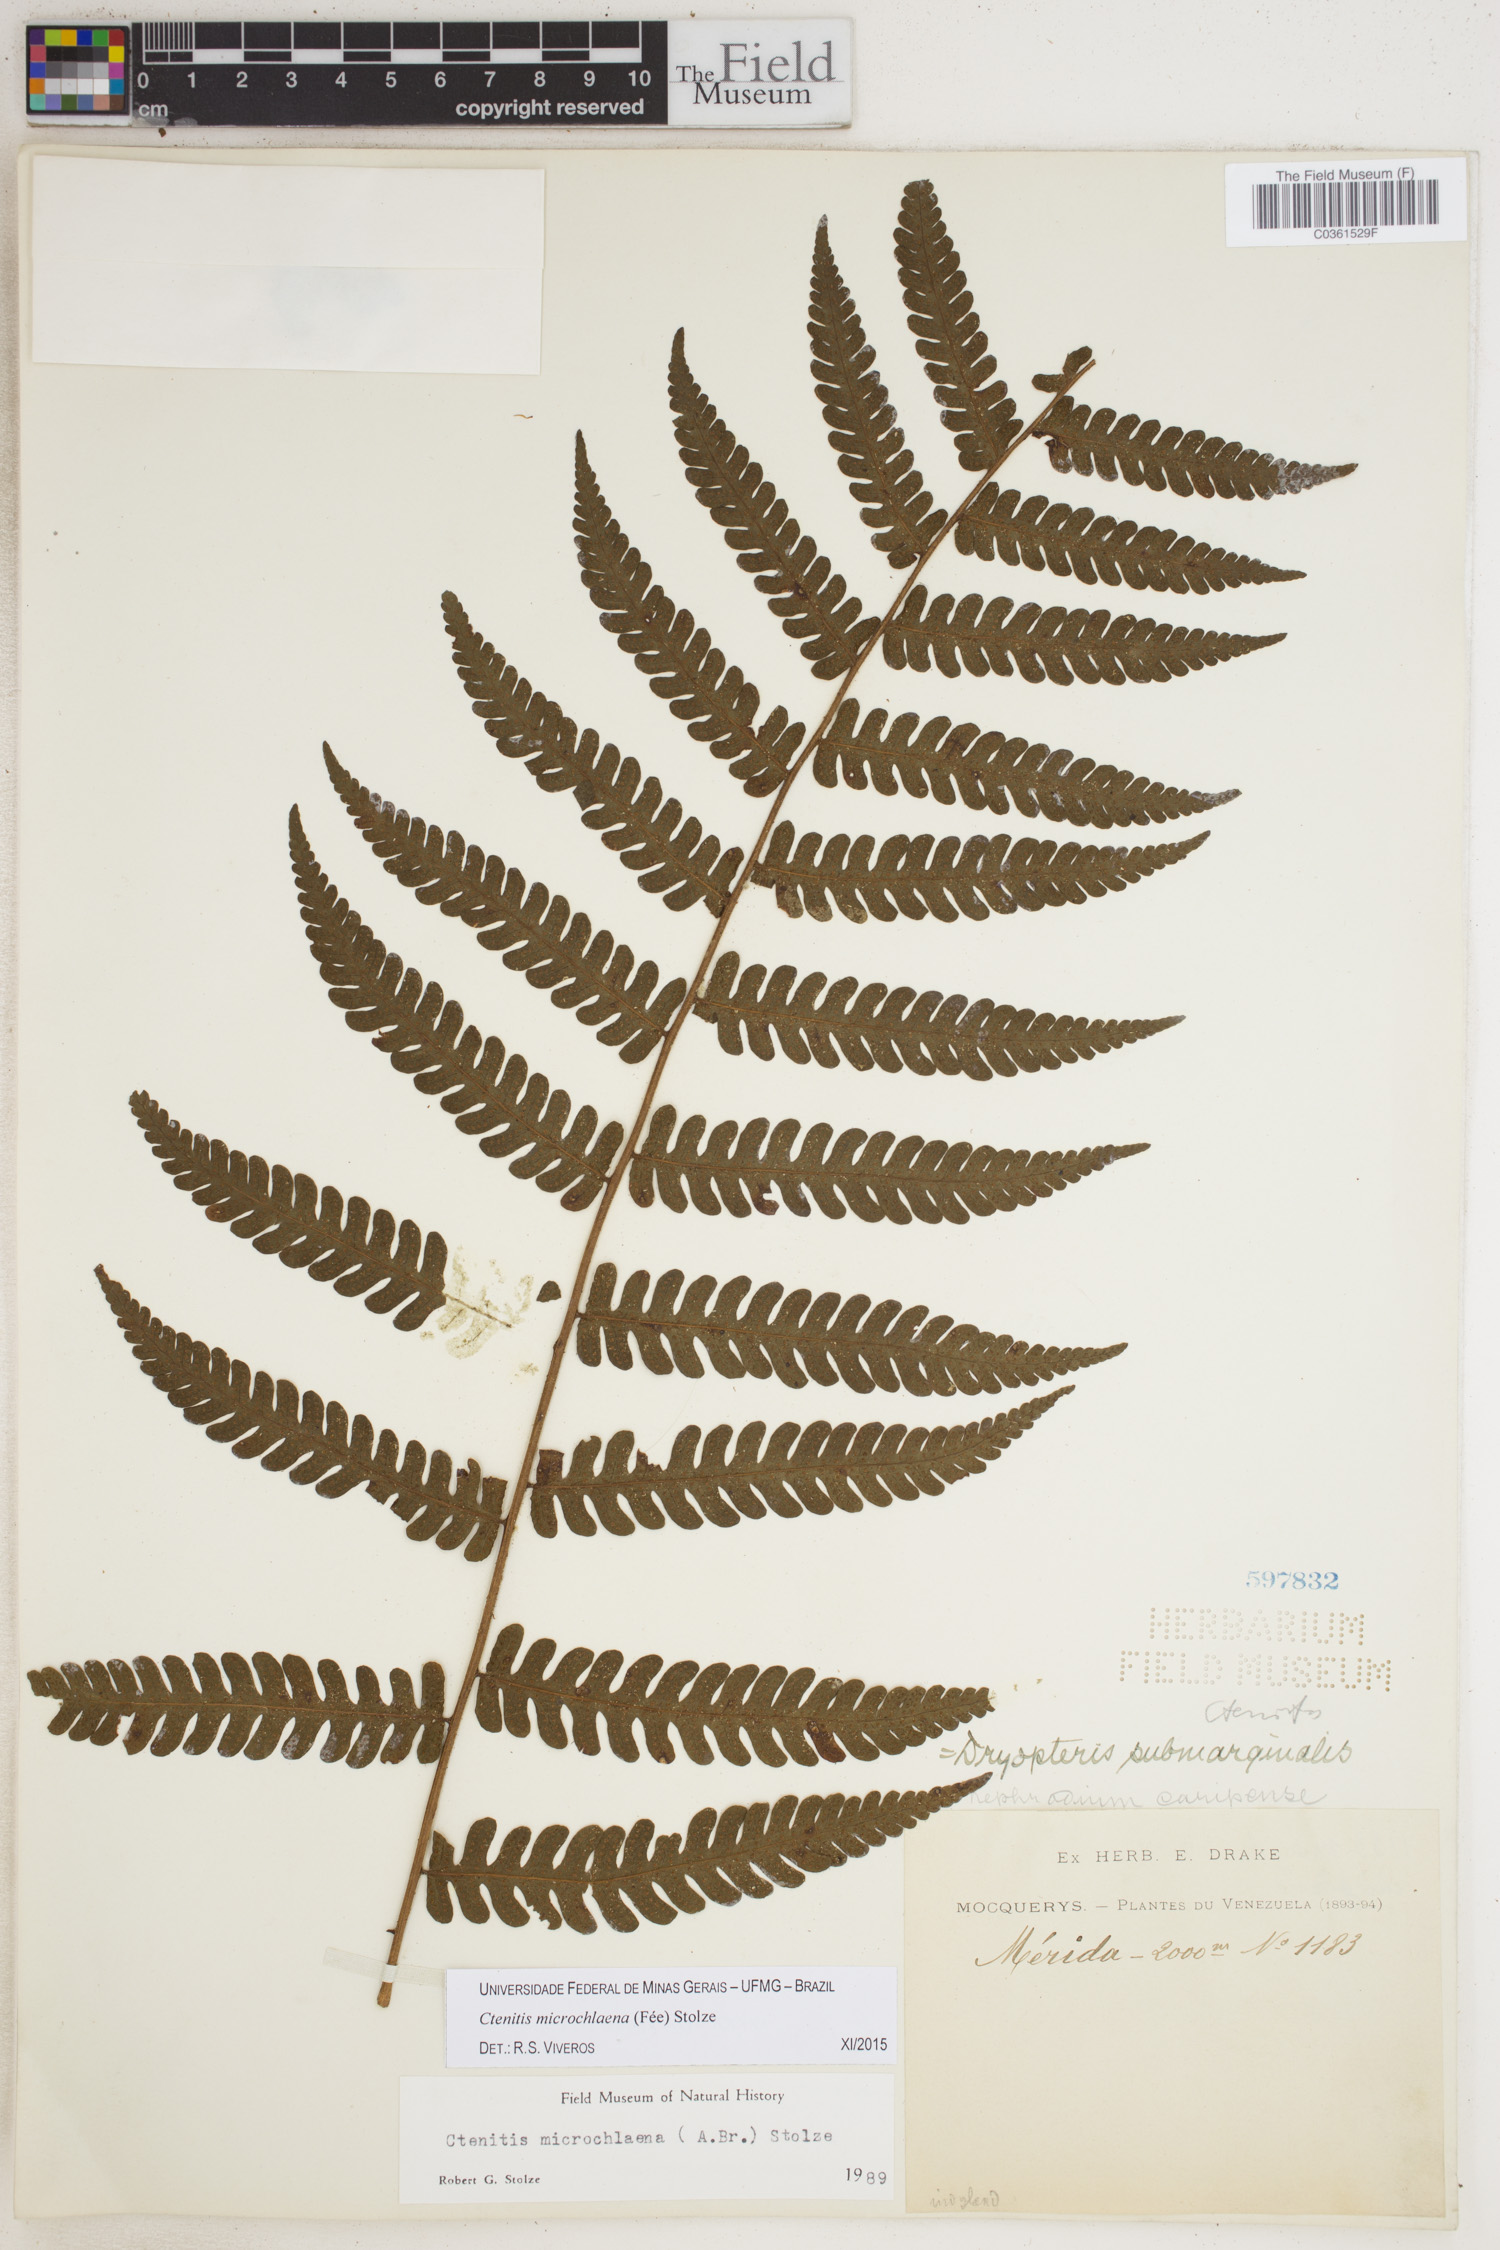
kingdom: Plantae
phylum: Tracheophyta
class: Polypodiopsida
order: Polypodiales
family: Dryopteridaceae
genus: Ctenitis
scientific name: Ctenitis microchlaena
